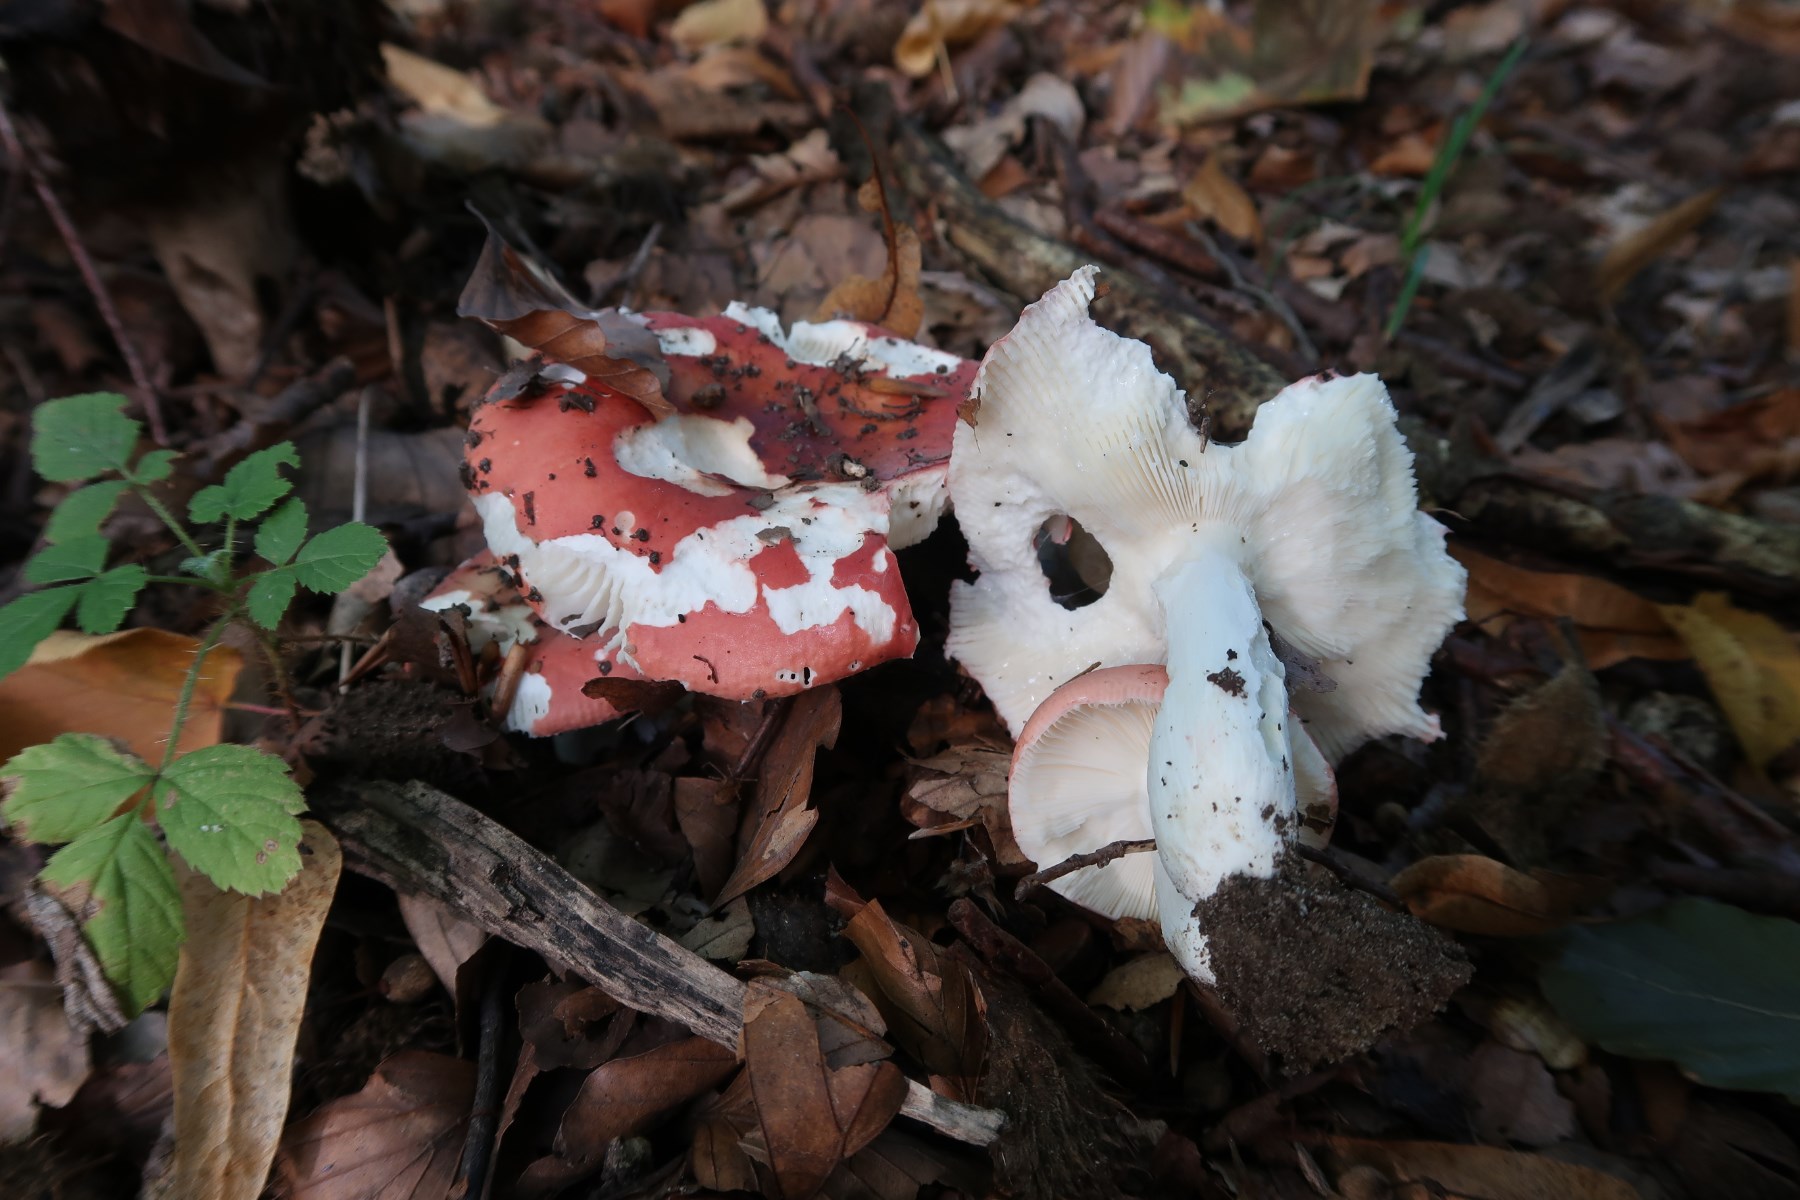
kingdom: Fungi
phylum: Basidiomycota
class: Agaricomycetes
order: Russulales
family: Russulaceae
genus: Russula
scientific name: Russula aurora
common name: rosa skørhat
